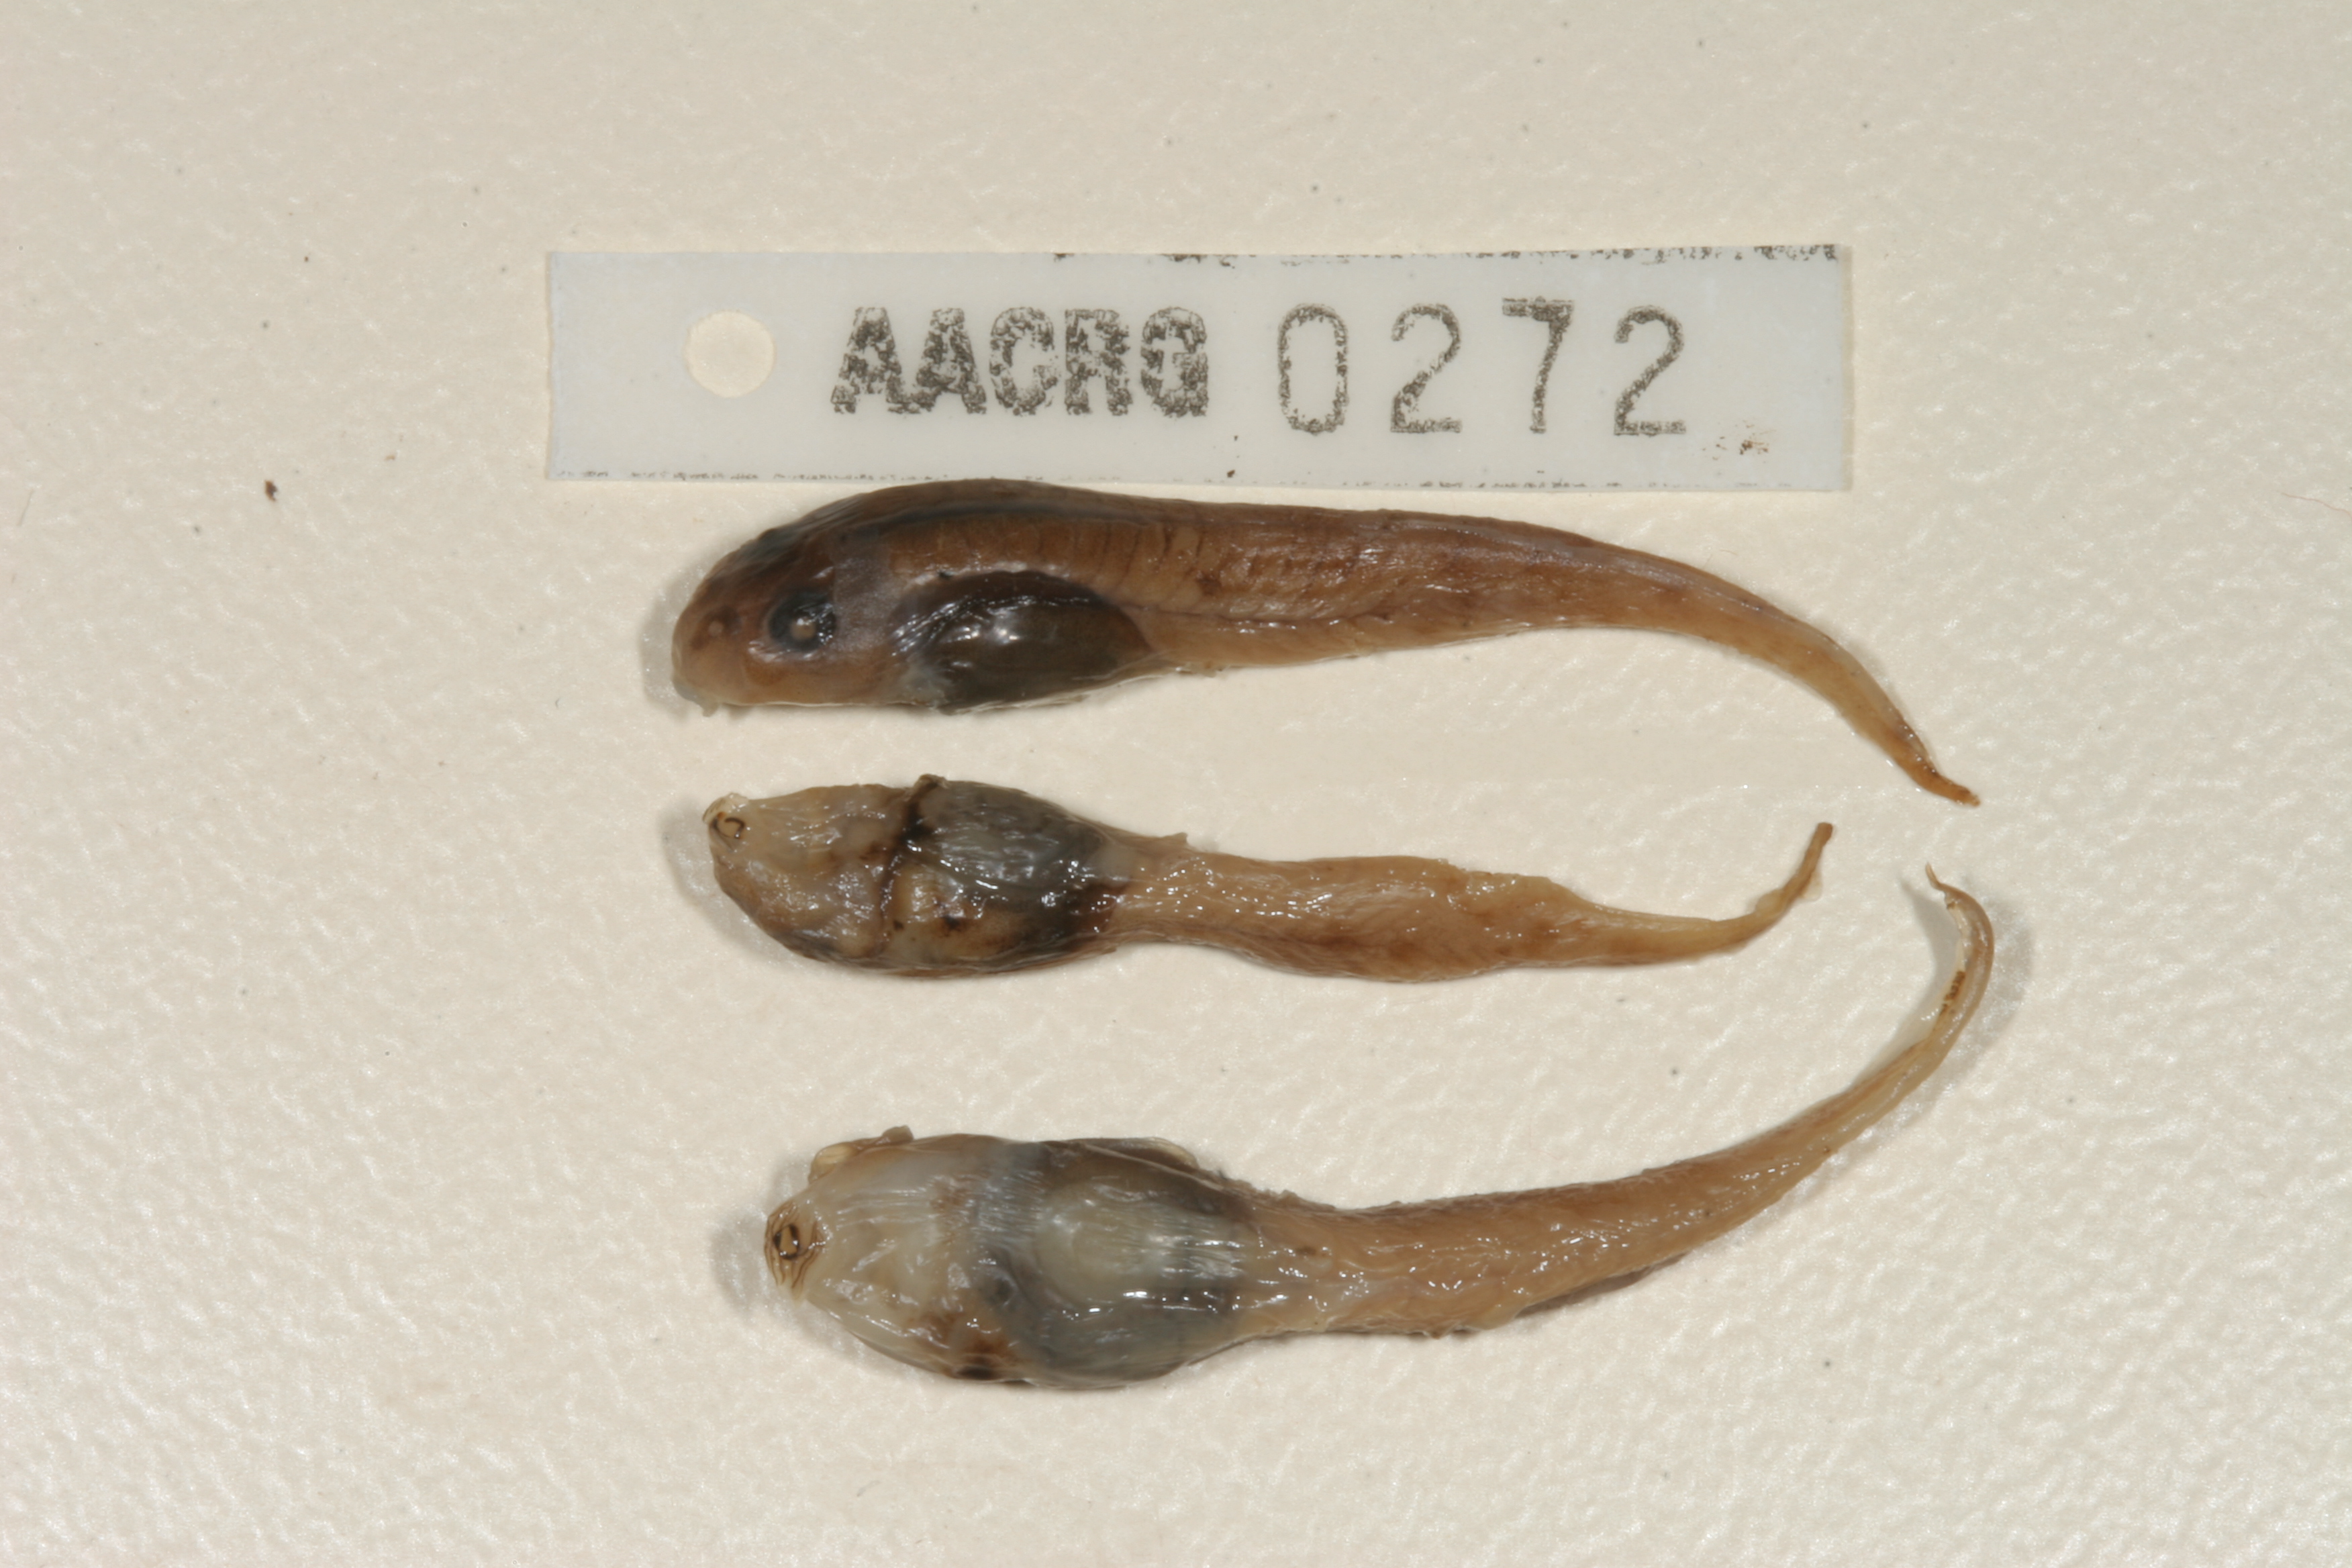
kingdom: Animalia
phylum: Chordata
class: Amphibia
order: Anura
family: Pyxicephalidae
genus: Amietia
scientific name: Amietia vertebralis
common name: Drakensberg stream frog
